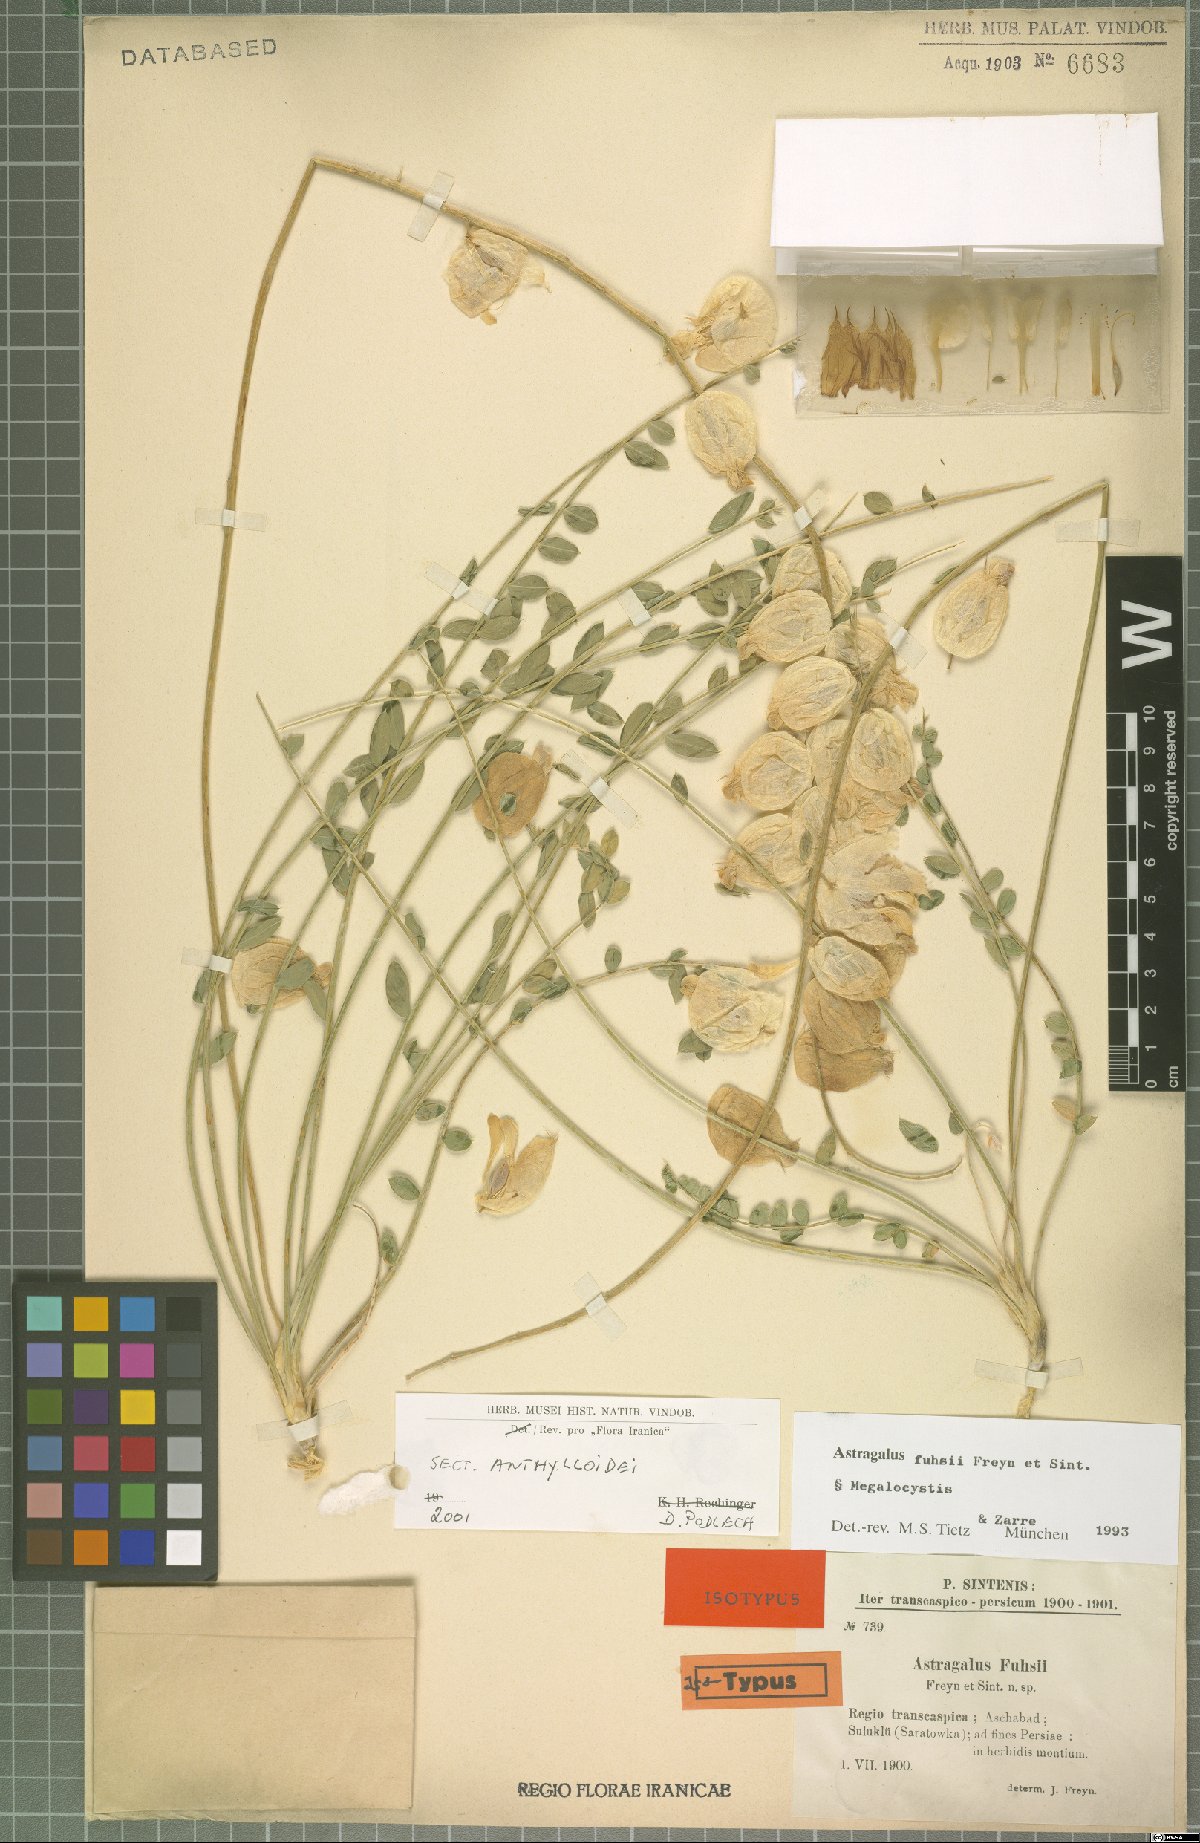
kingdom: Plantae
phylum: Tracheophyta
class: Magnoliopsida
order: Fabales
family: Fabaceae
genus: Astragalus
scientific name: Astragalus fuhsii
